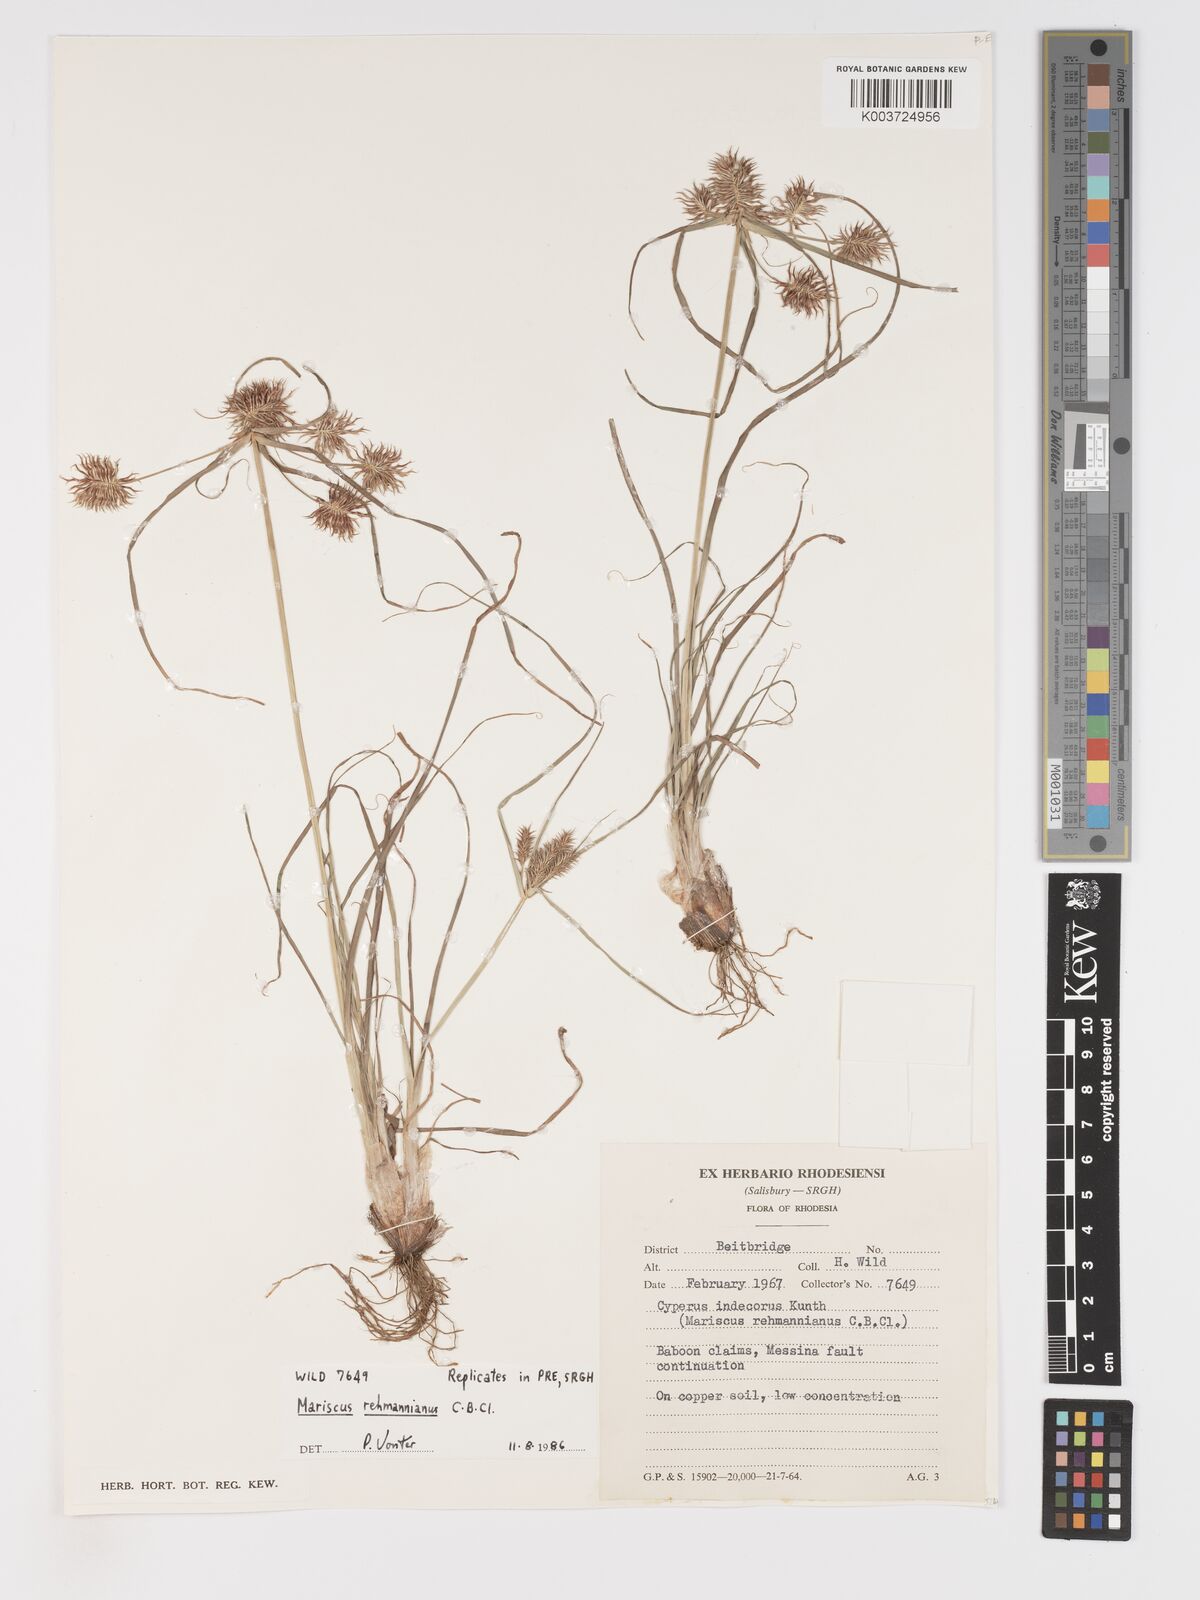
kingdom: Plantae
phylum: Tracheophyta
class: Liliopsida
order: Poales
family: Cyperaceae
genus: Cyperus
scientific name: Cyperus indecorus
